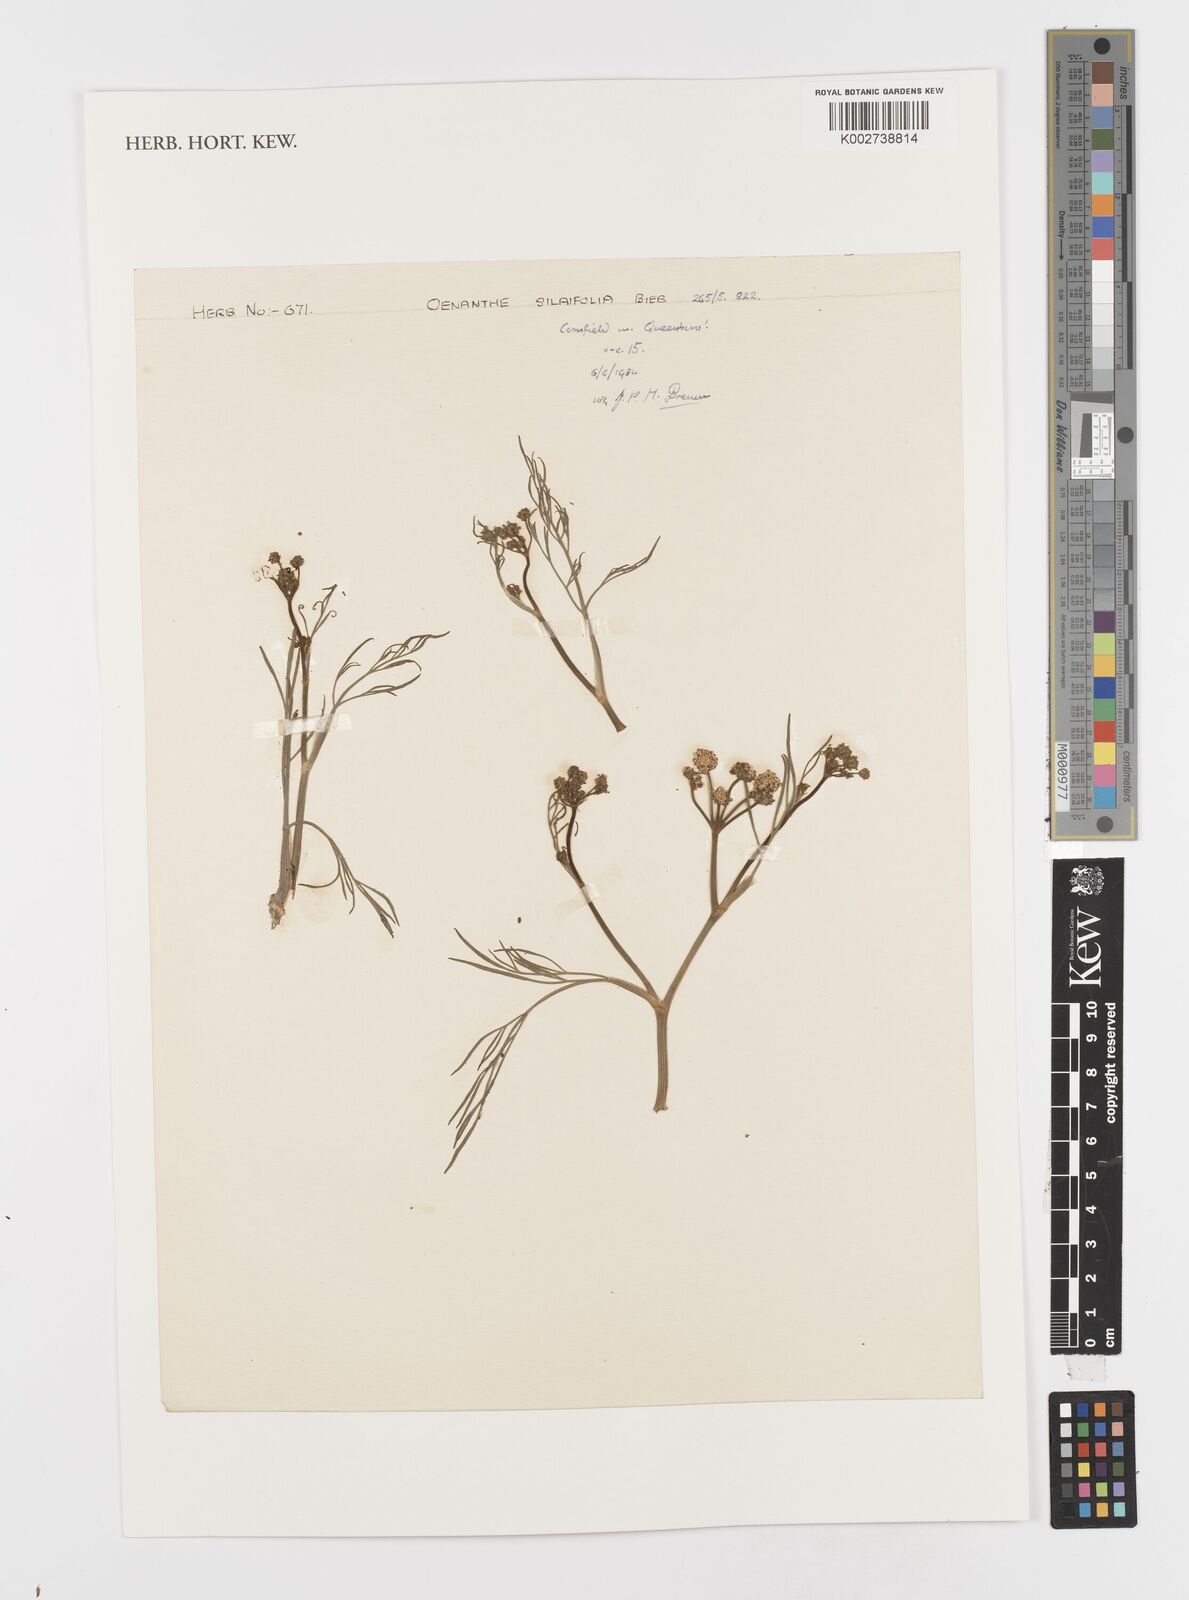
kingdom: Plantae
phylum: Tracheophyta
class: Magnoliopsida
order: Apiales
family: Apiaceae
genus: Oenanthe
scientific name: Oenanthe silaifolia
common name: Narrow-leaved water-dropwort
